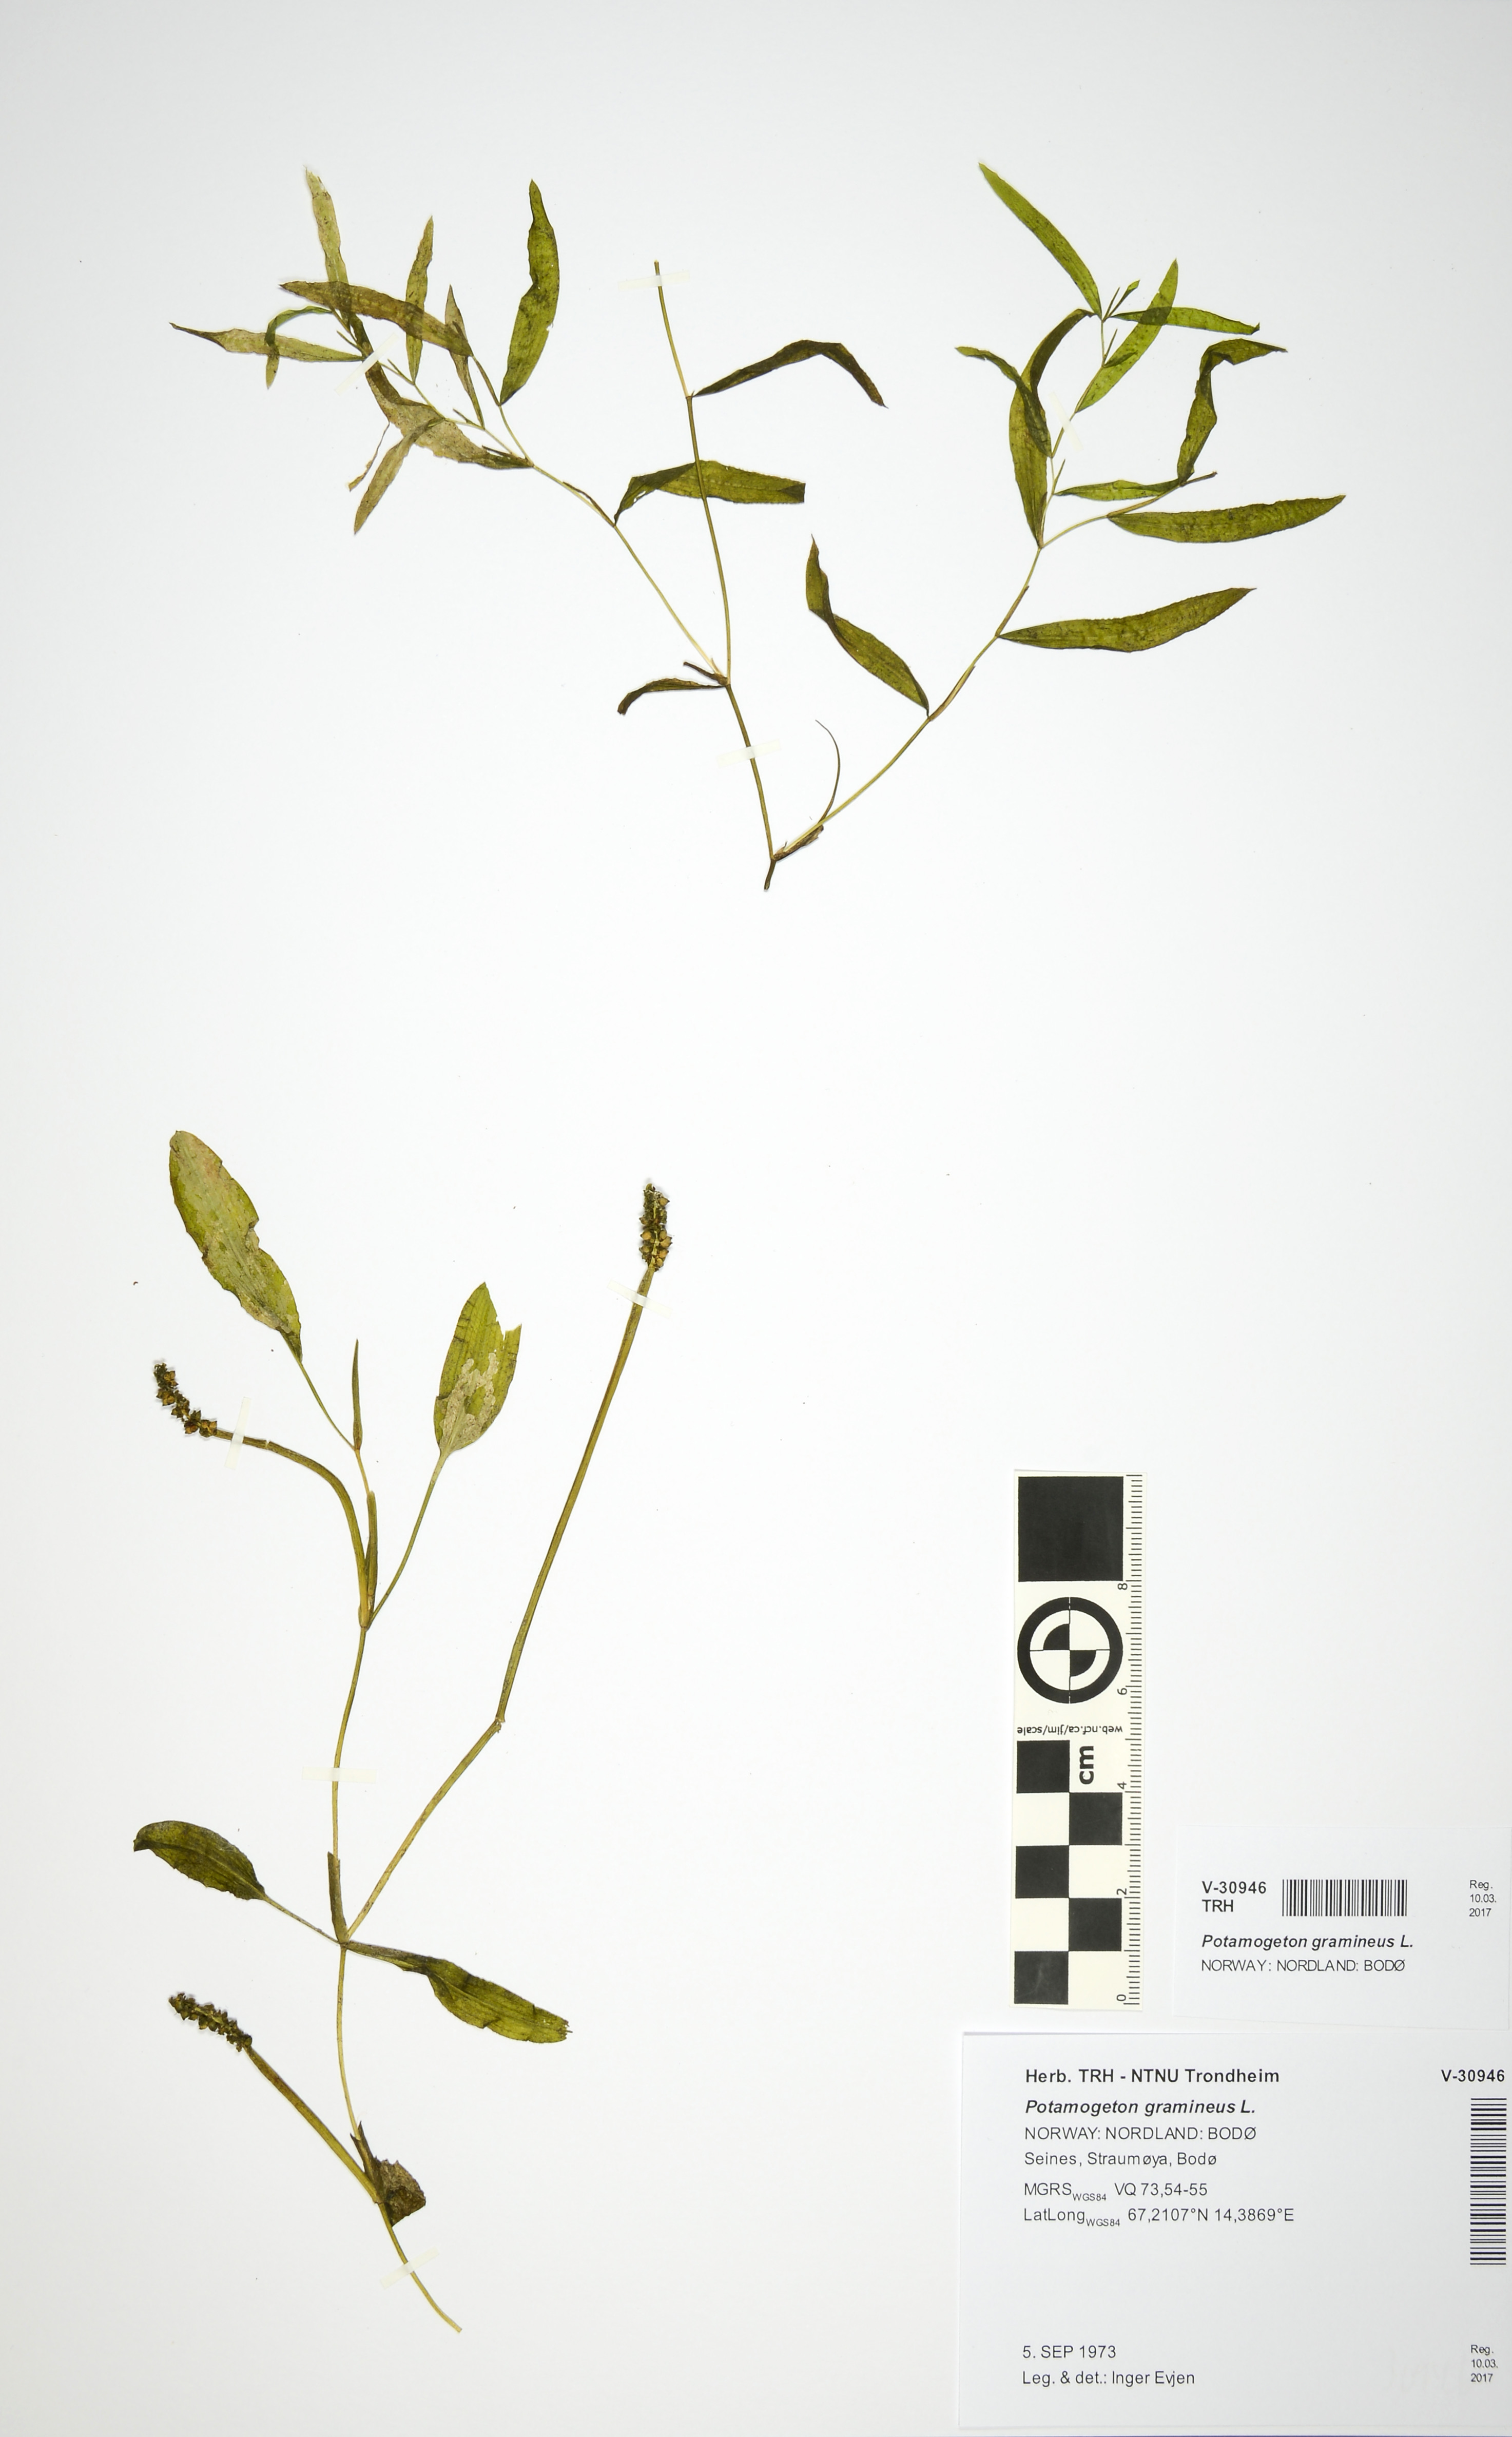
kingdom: Plantae
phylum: Tracheophyta
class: Liliopsida
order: Alismatales
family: Potamogetonaceae
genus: Potamogeton
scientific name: Potamogeton gramineus
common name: Various-leaved pondweed
